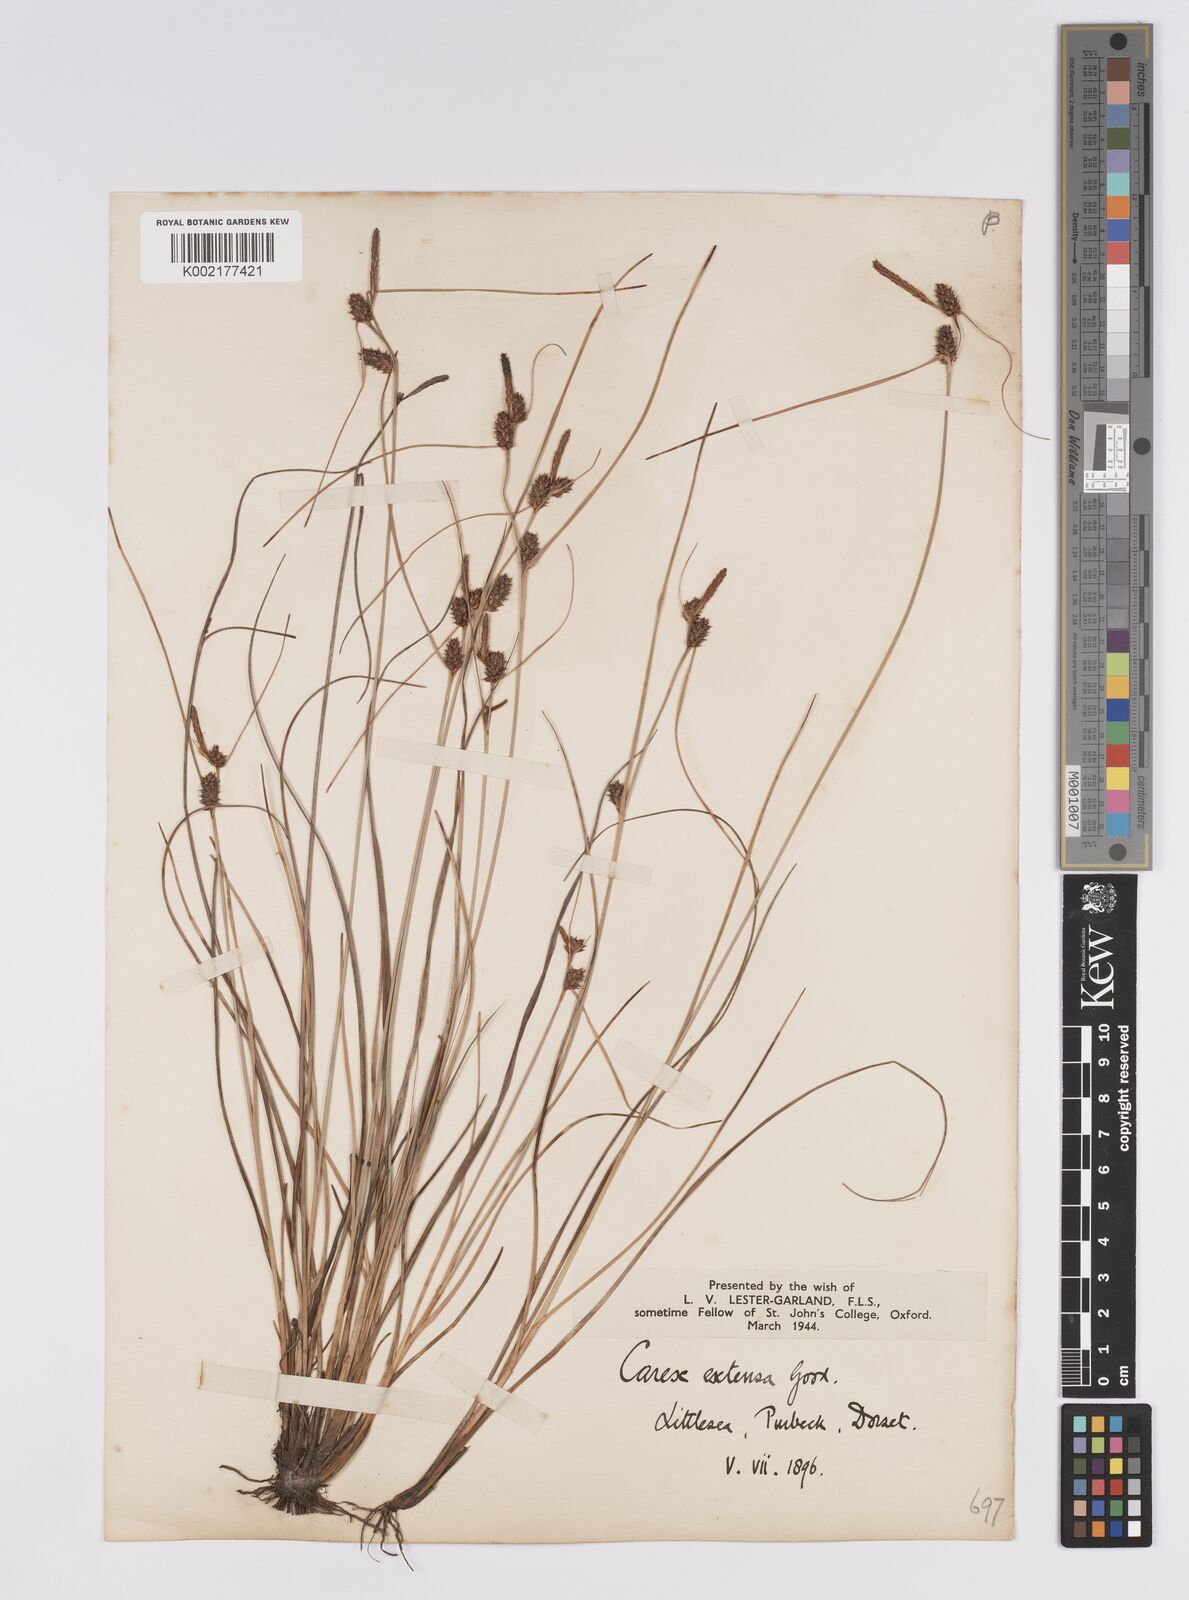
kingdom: Plantae
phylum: Tracheophyta
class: Liliopsida
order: Poales
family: Cyperaceae
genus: Carex
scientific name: Carex extensa
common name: Long-bracted sedge
